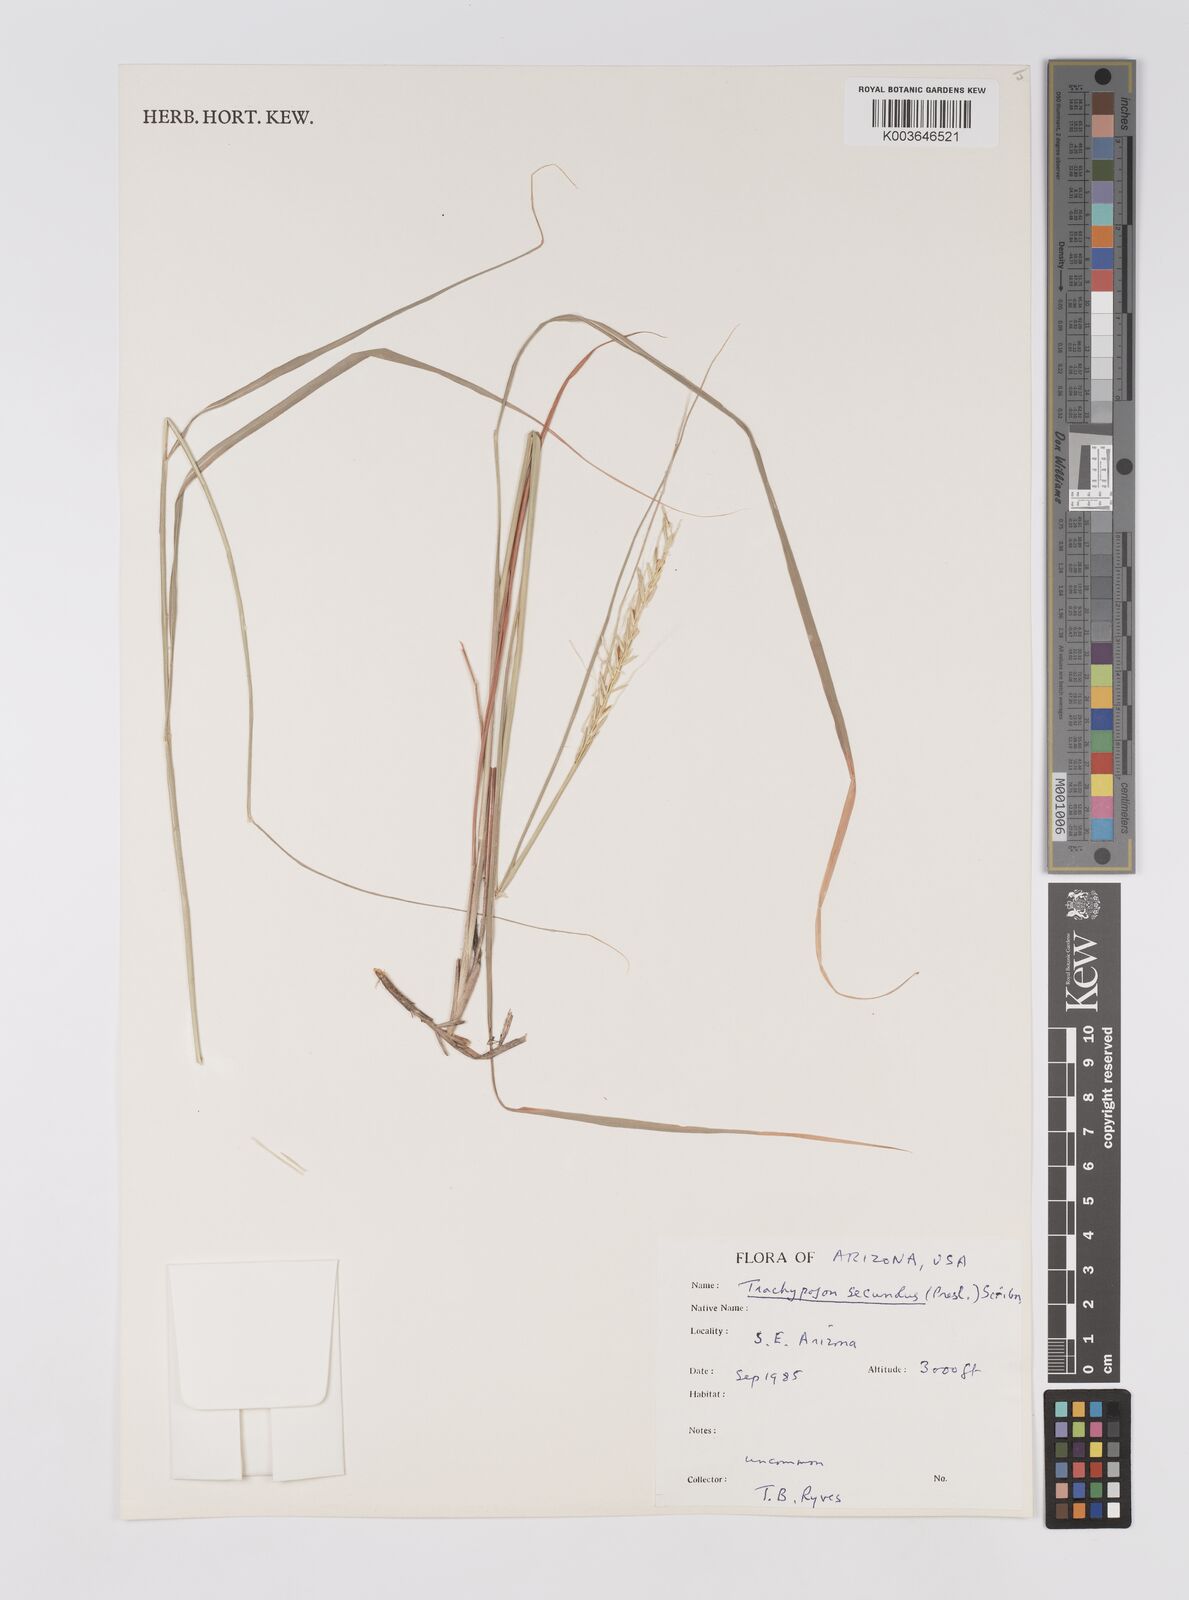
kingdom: Plantae
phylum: Tracheophyta
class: Liliopsida
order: Poales
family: Poaceae
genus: Trachypogon
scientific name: Trachypogon spicatus
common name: Crinkle-awn
